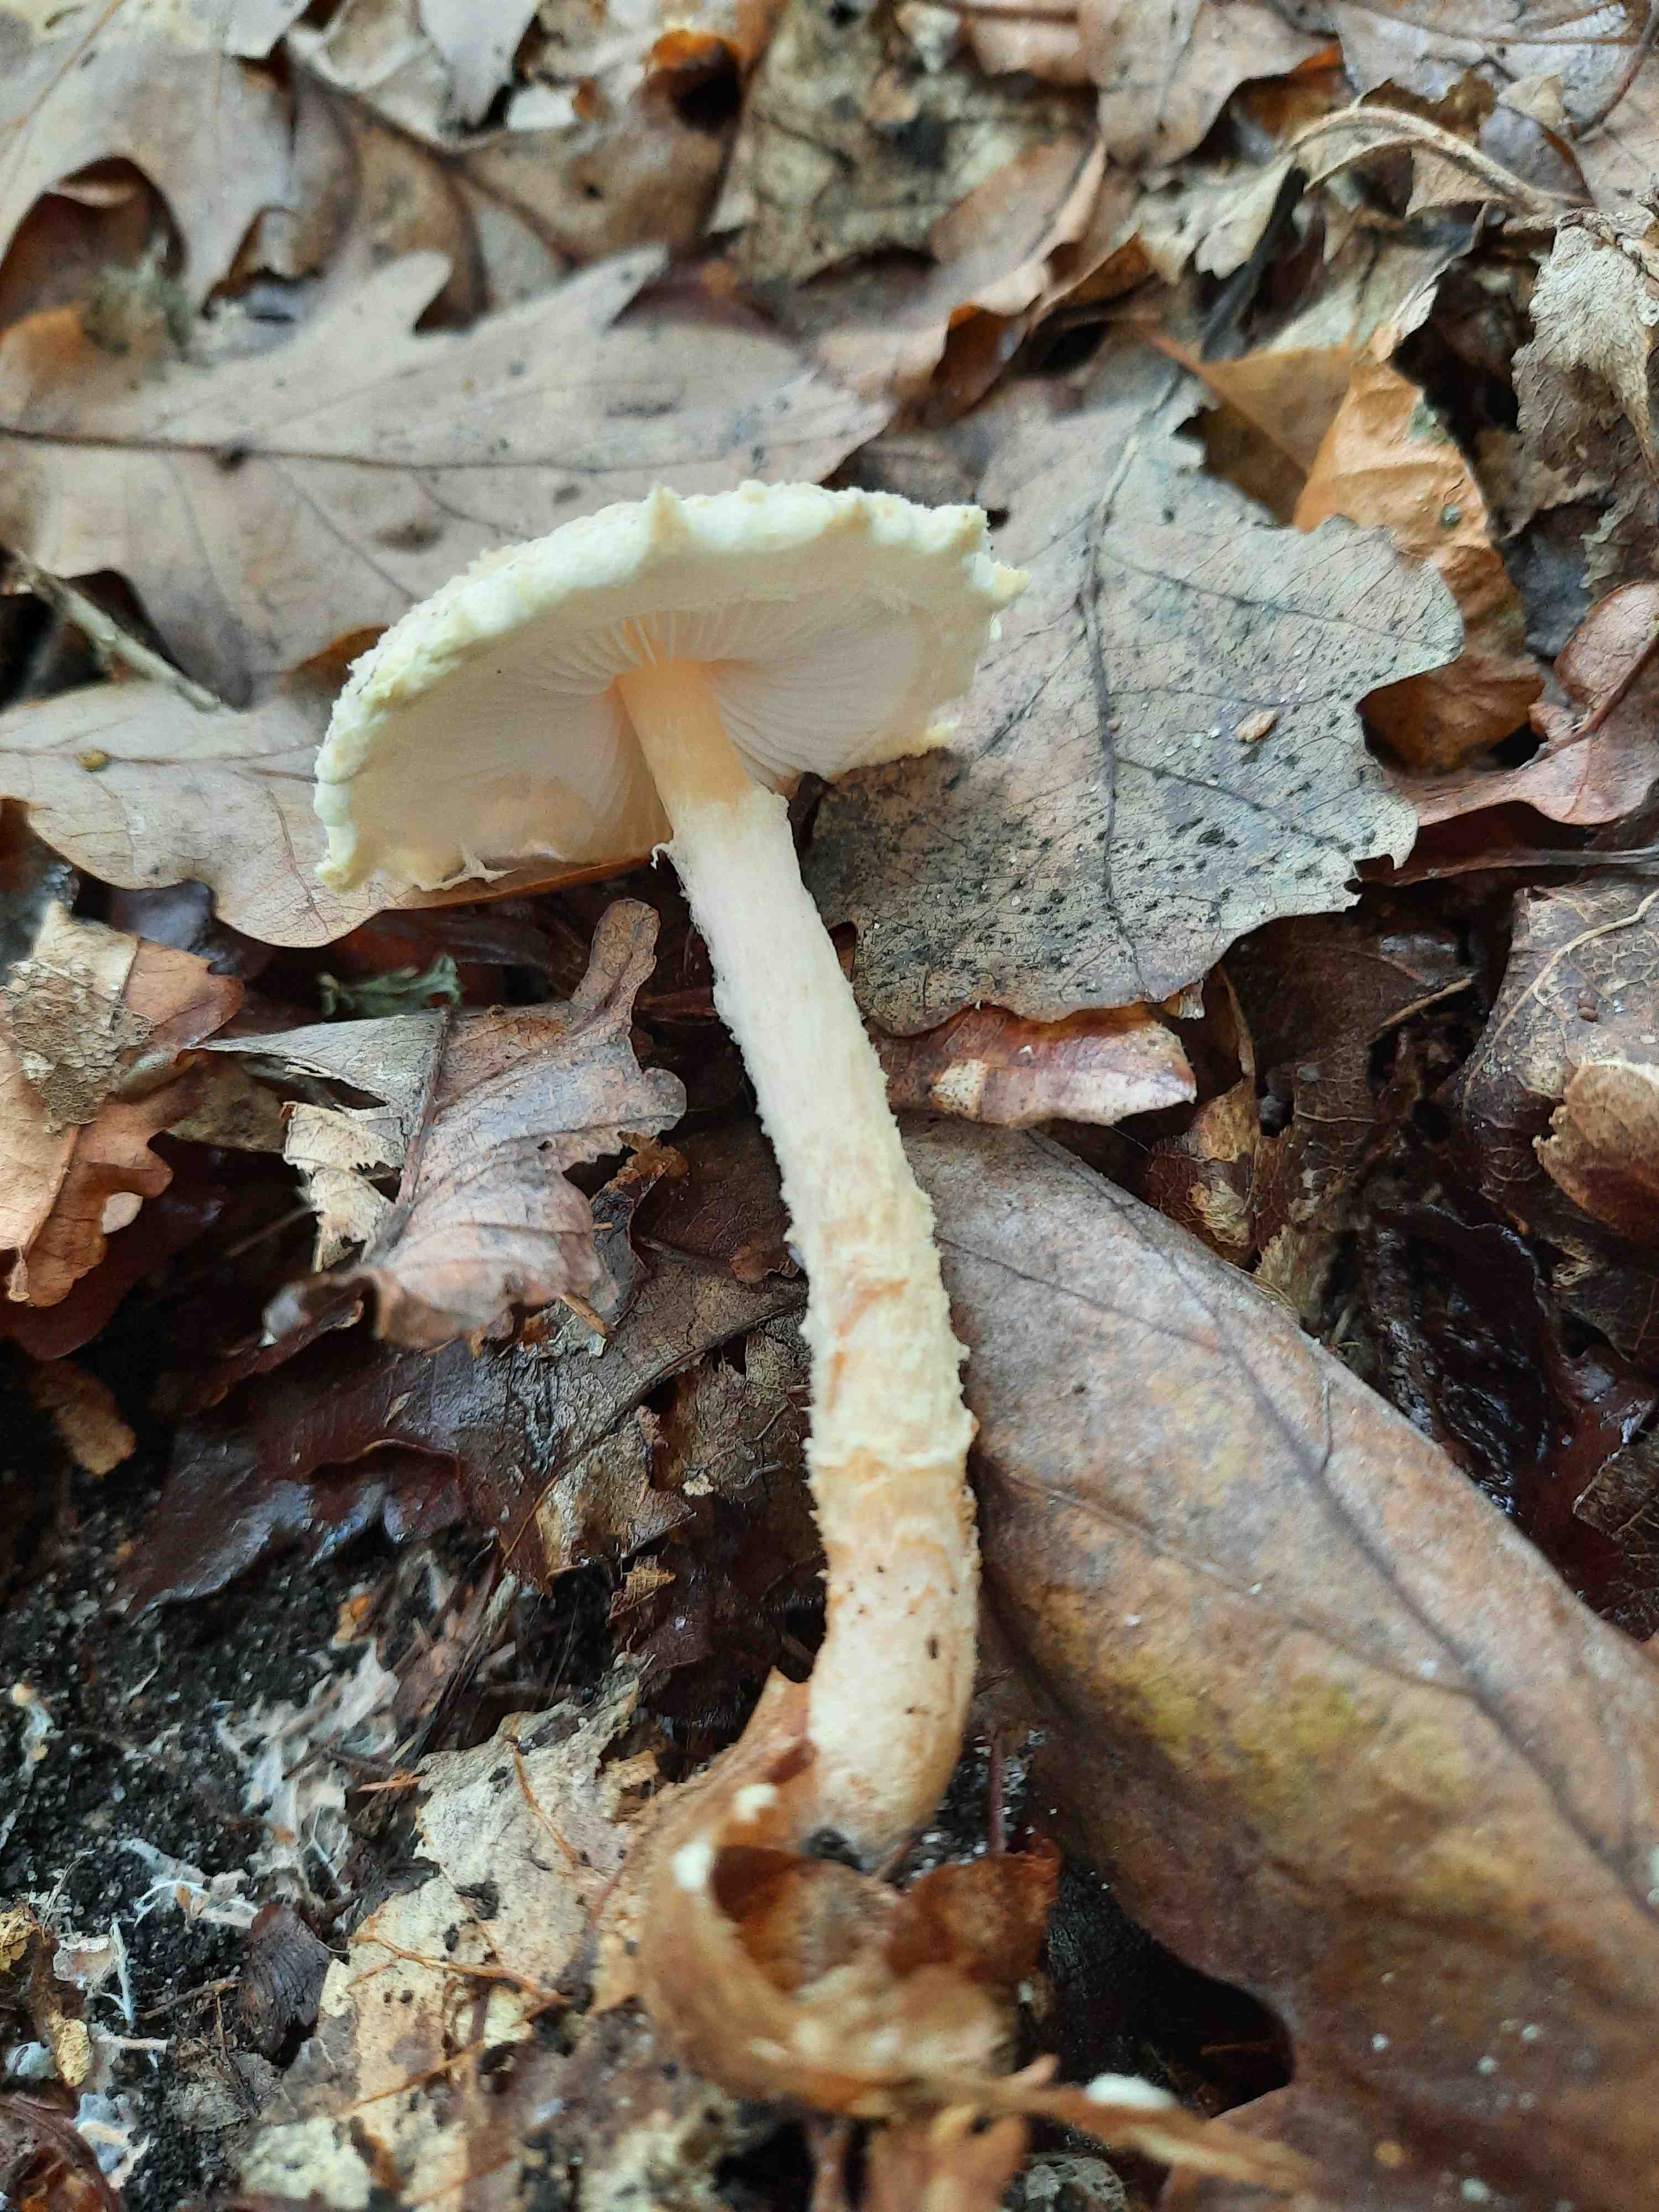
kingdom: Fungi
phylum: Basidiomycota
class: Agaricomycetes
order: Agaricales
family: Agaricaceae
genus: Lepiota
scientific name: Lepiota magnispora
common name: gulfnugget parasolhat
